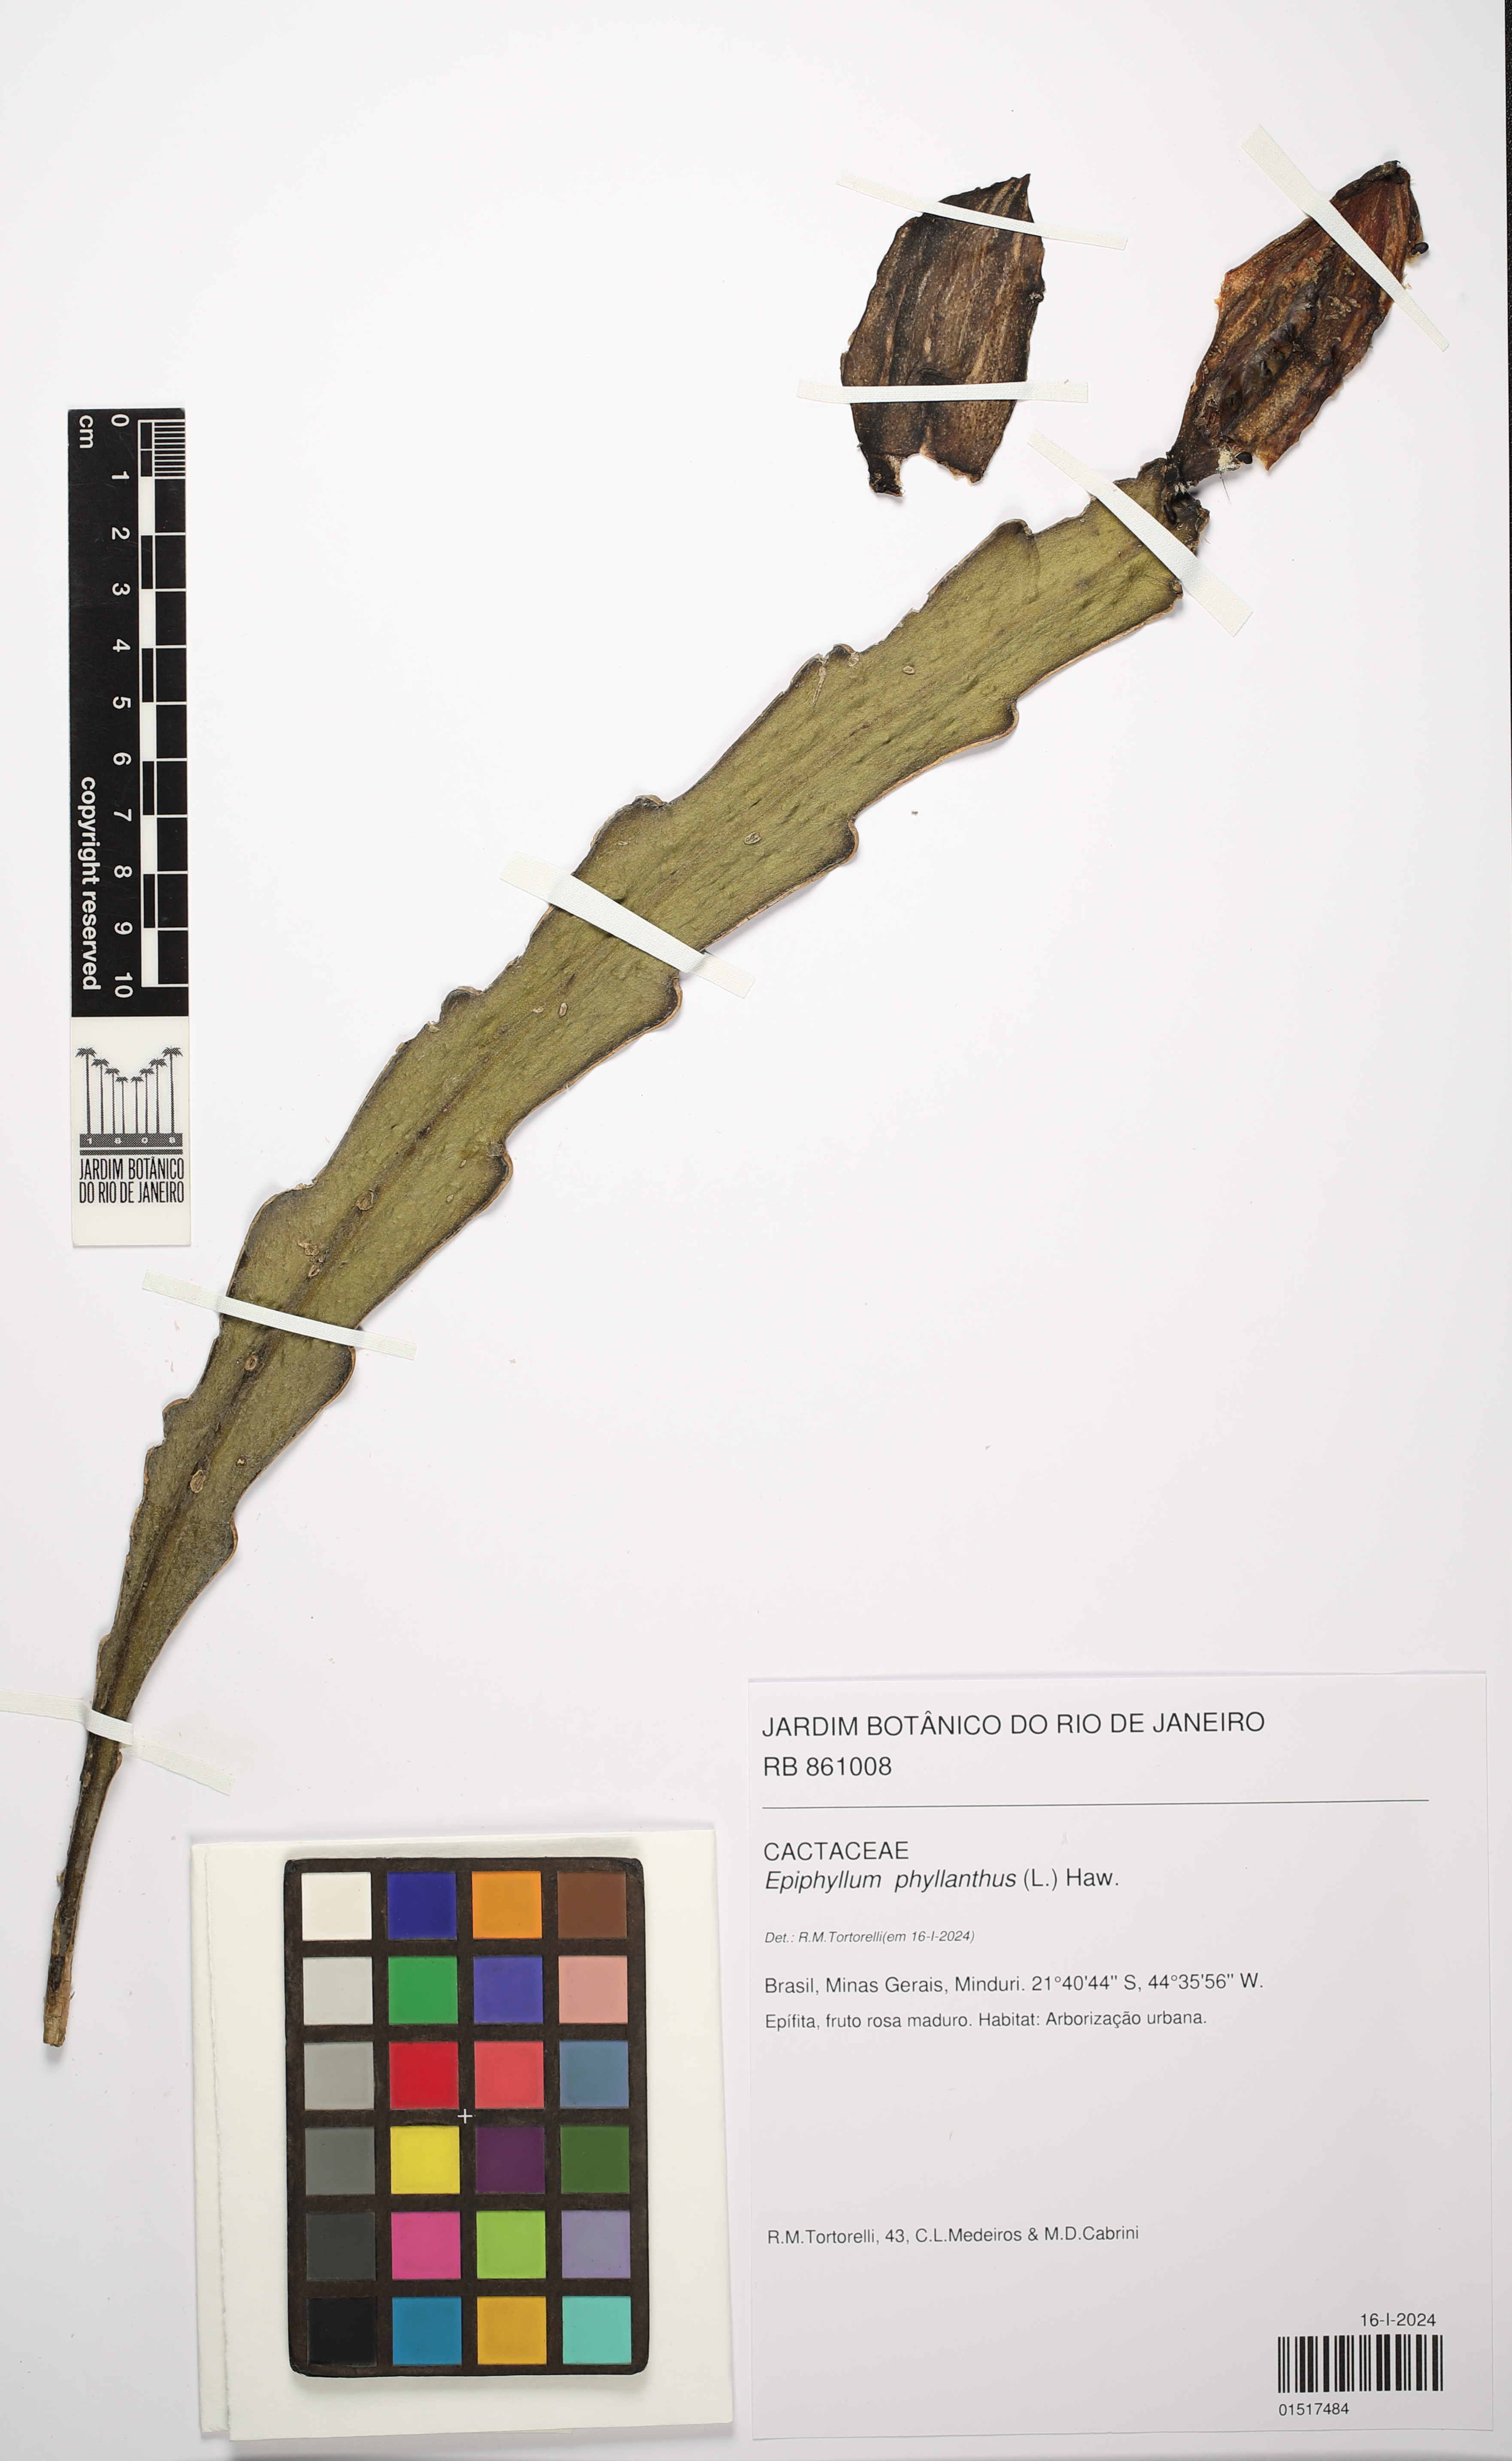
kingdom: Plantae
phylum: Tracheophyta
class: Magnoliopsida
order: Caryophyllales
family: Cactaceae
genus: Epiphyllum
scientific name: Epiphyllum phyllanthus
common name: Climbing cactus
